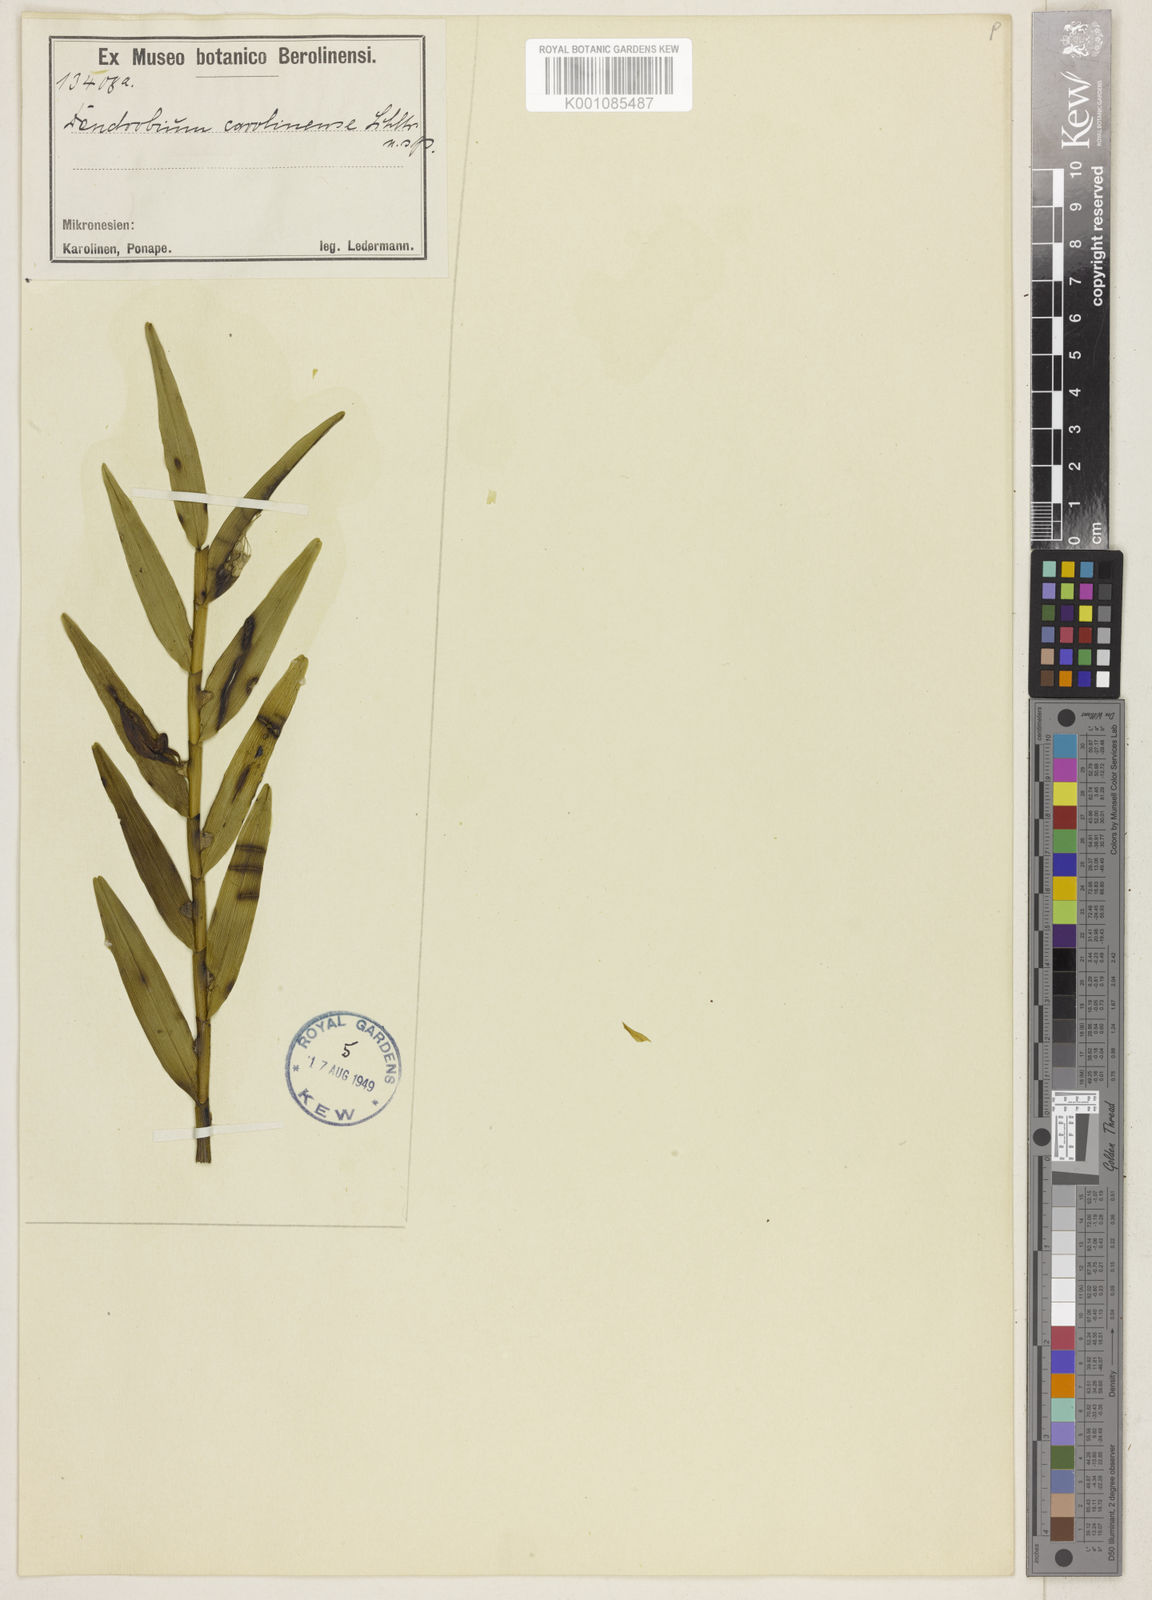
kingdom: Plantae
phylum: Tracheophyta
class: Liliopsida
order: Asparagales
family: Orchidaceae
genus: Dendrobium
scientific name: Dendrobium carolinense
